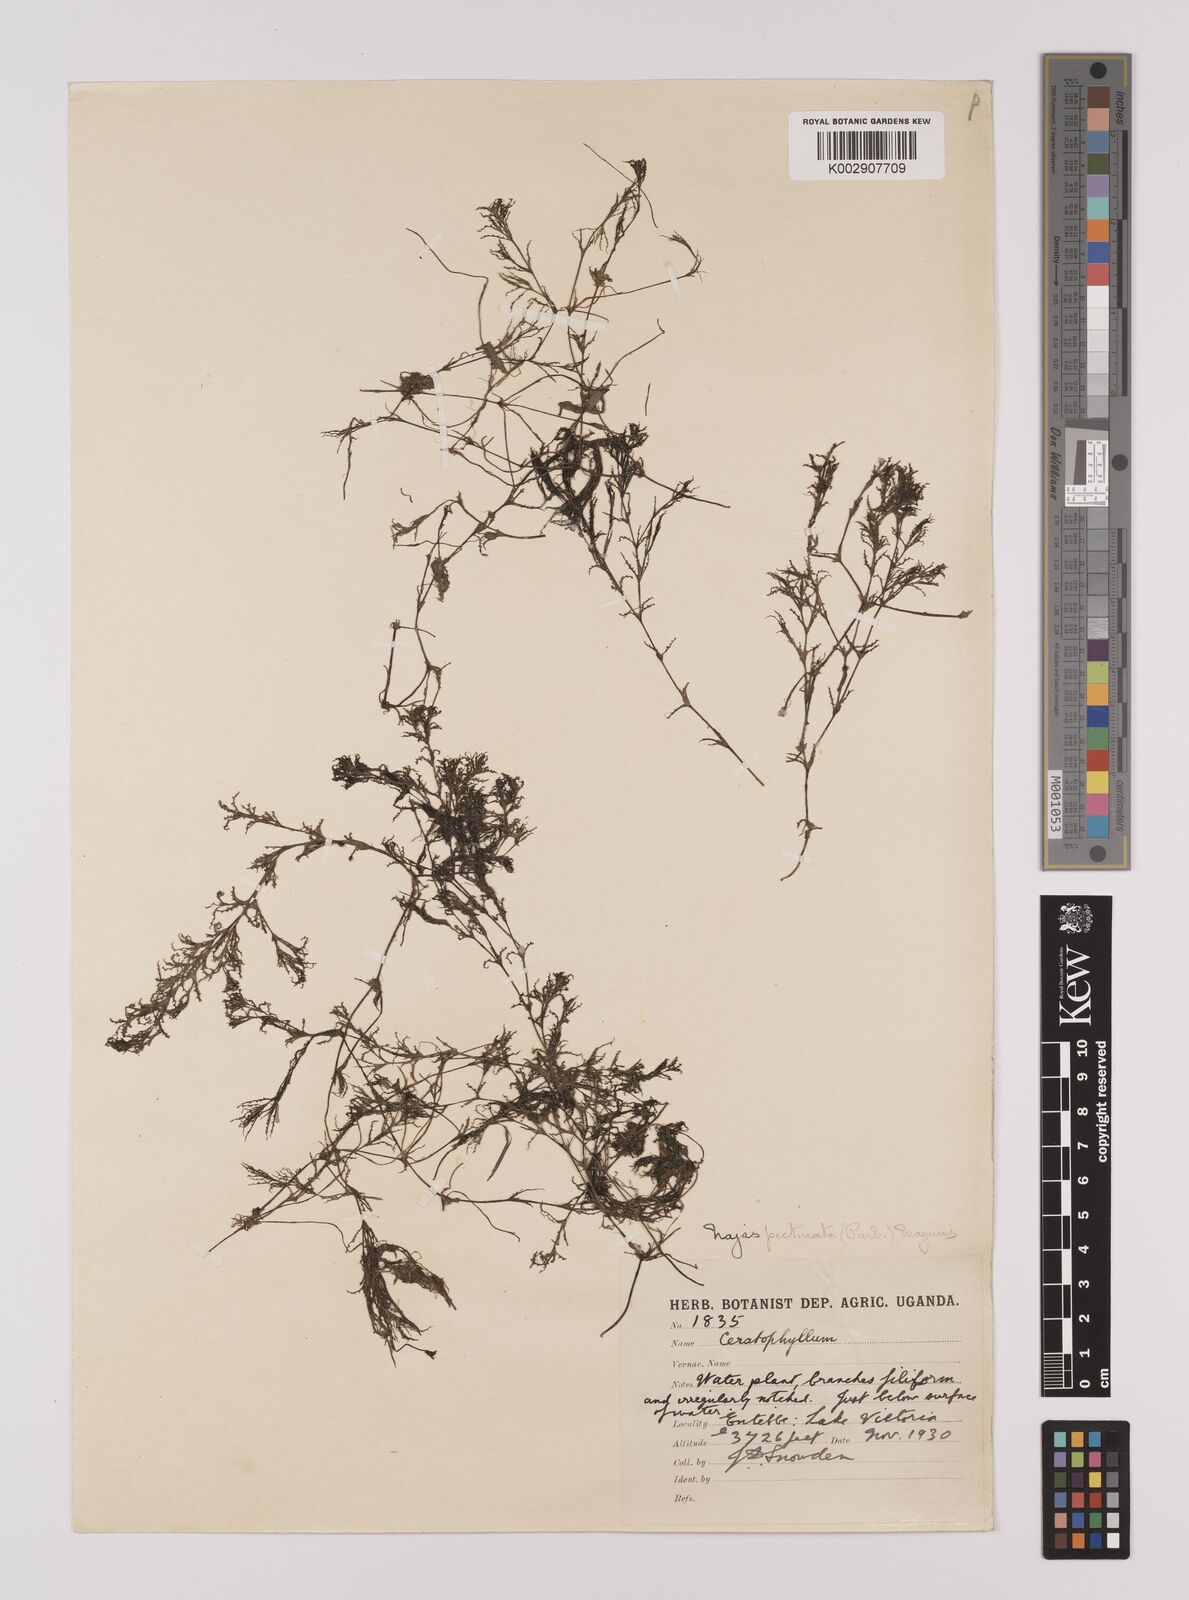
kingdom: Plantae
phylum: Tracheophyta
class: Liliopsida
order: Alismatales
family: Hydrocharitaceae
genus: Najas
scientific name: Najas horrida
